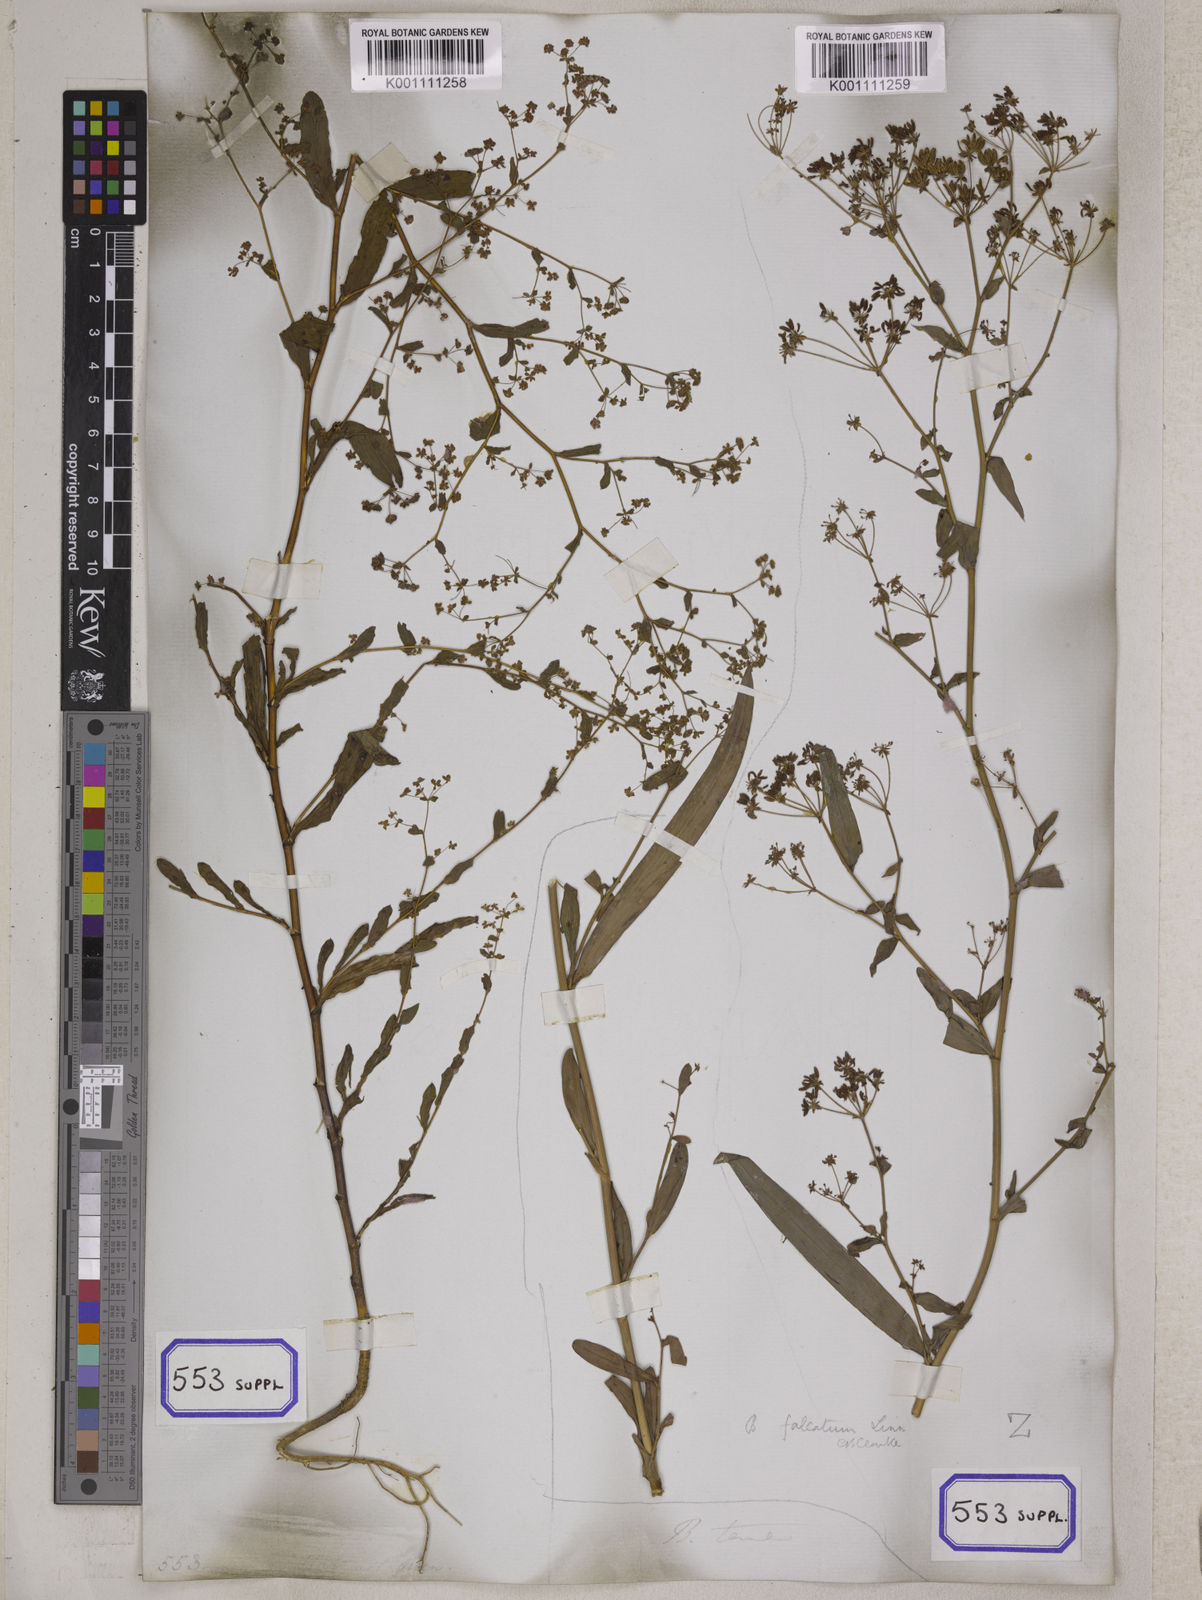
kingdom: Plantae
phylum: Tracheophyta
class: Magnoliopsida
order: Apiales
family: Apiaceae
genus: Bupleurum
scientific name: Bupleurum
